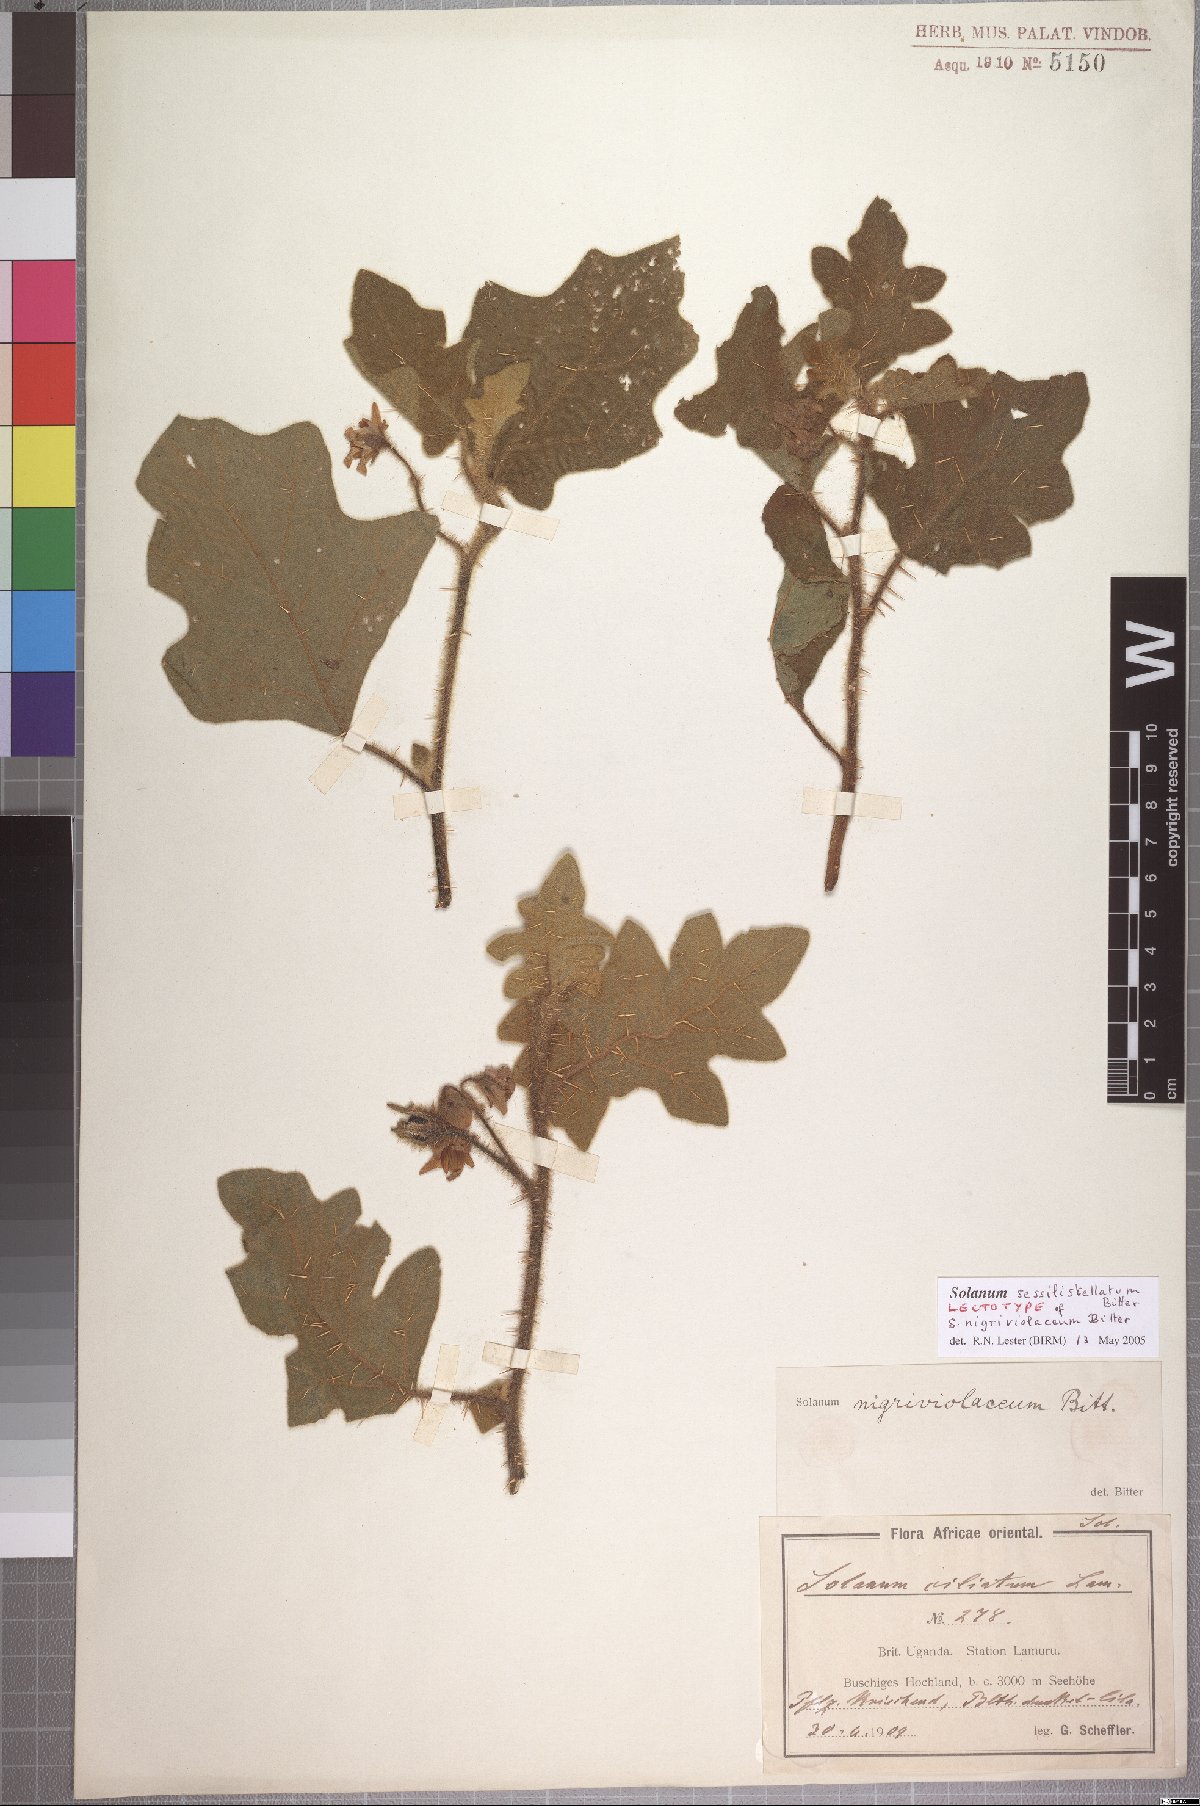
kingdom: Plantae
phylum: Tracheophyta
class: Magnoliopsida
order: Solanales
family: Solanaceae
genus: Solanum
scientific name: Solanum nigriviolaceum
